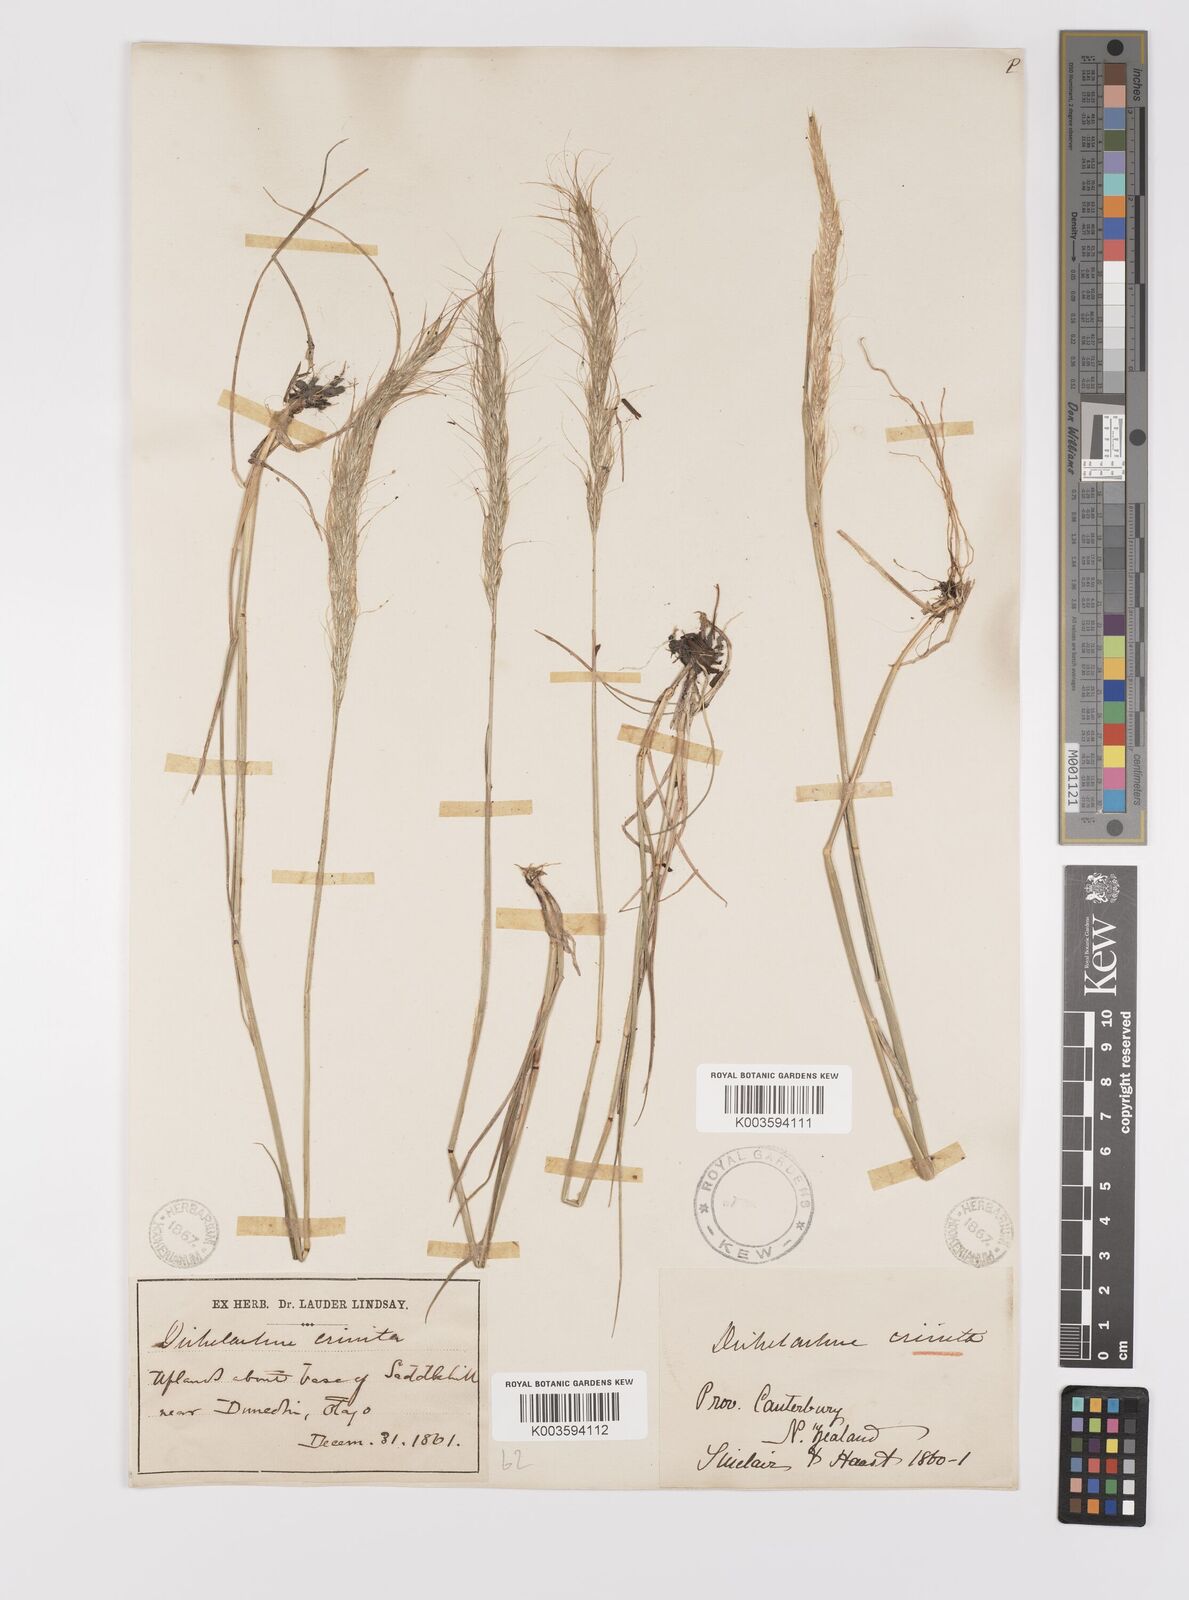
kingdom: Plantae
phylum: Tracheophyta
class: Liliopsida
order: Poales
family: Poaceae
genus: Dichelachne
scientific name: Dichelachne crinita
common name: Clovenfoot plumegrass
